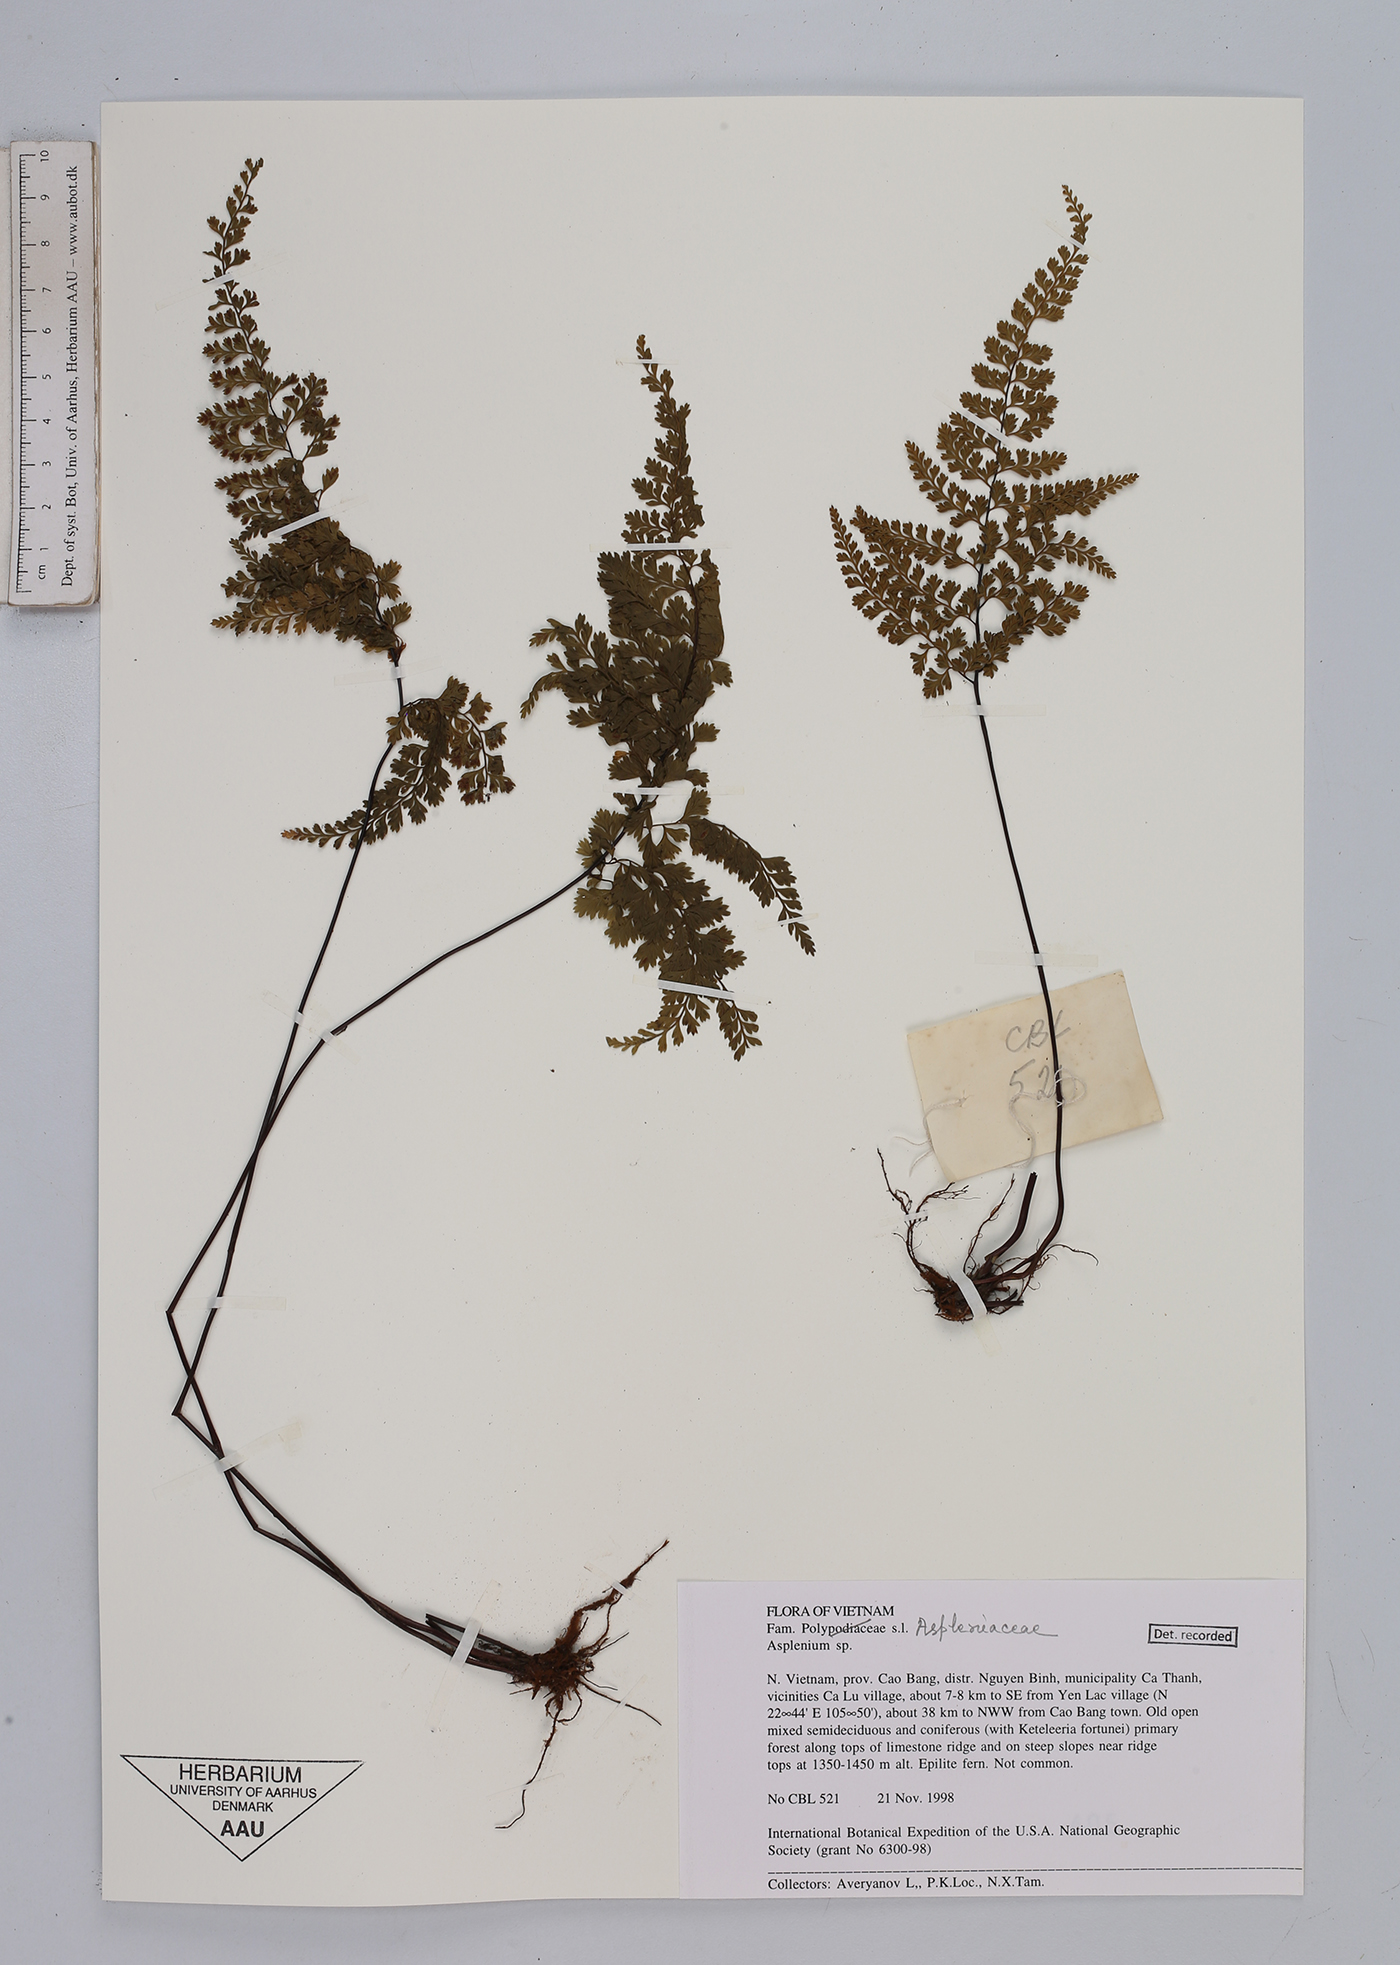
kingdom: Plantae
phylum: Tracheophyta
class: Polypodiopsida
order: Polypodiales
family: Aspleniaceae
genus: Asplenium
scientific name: Asplenium
